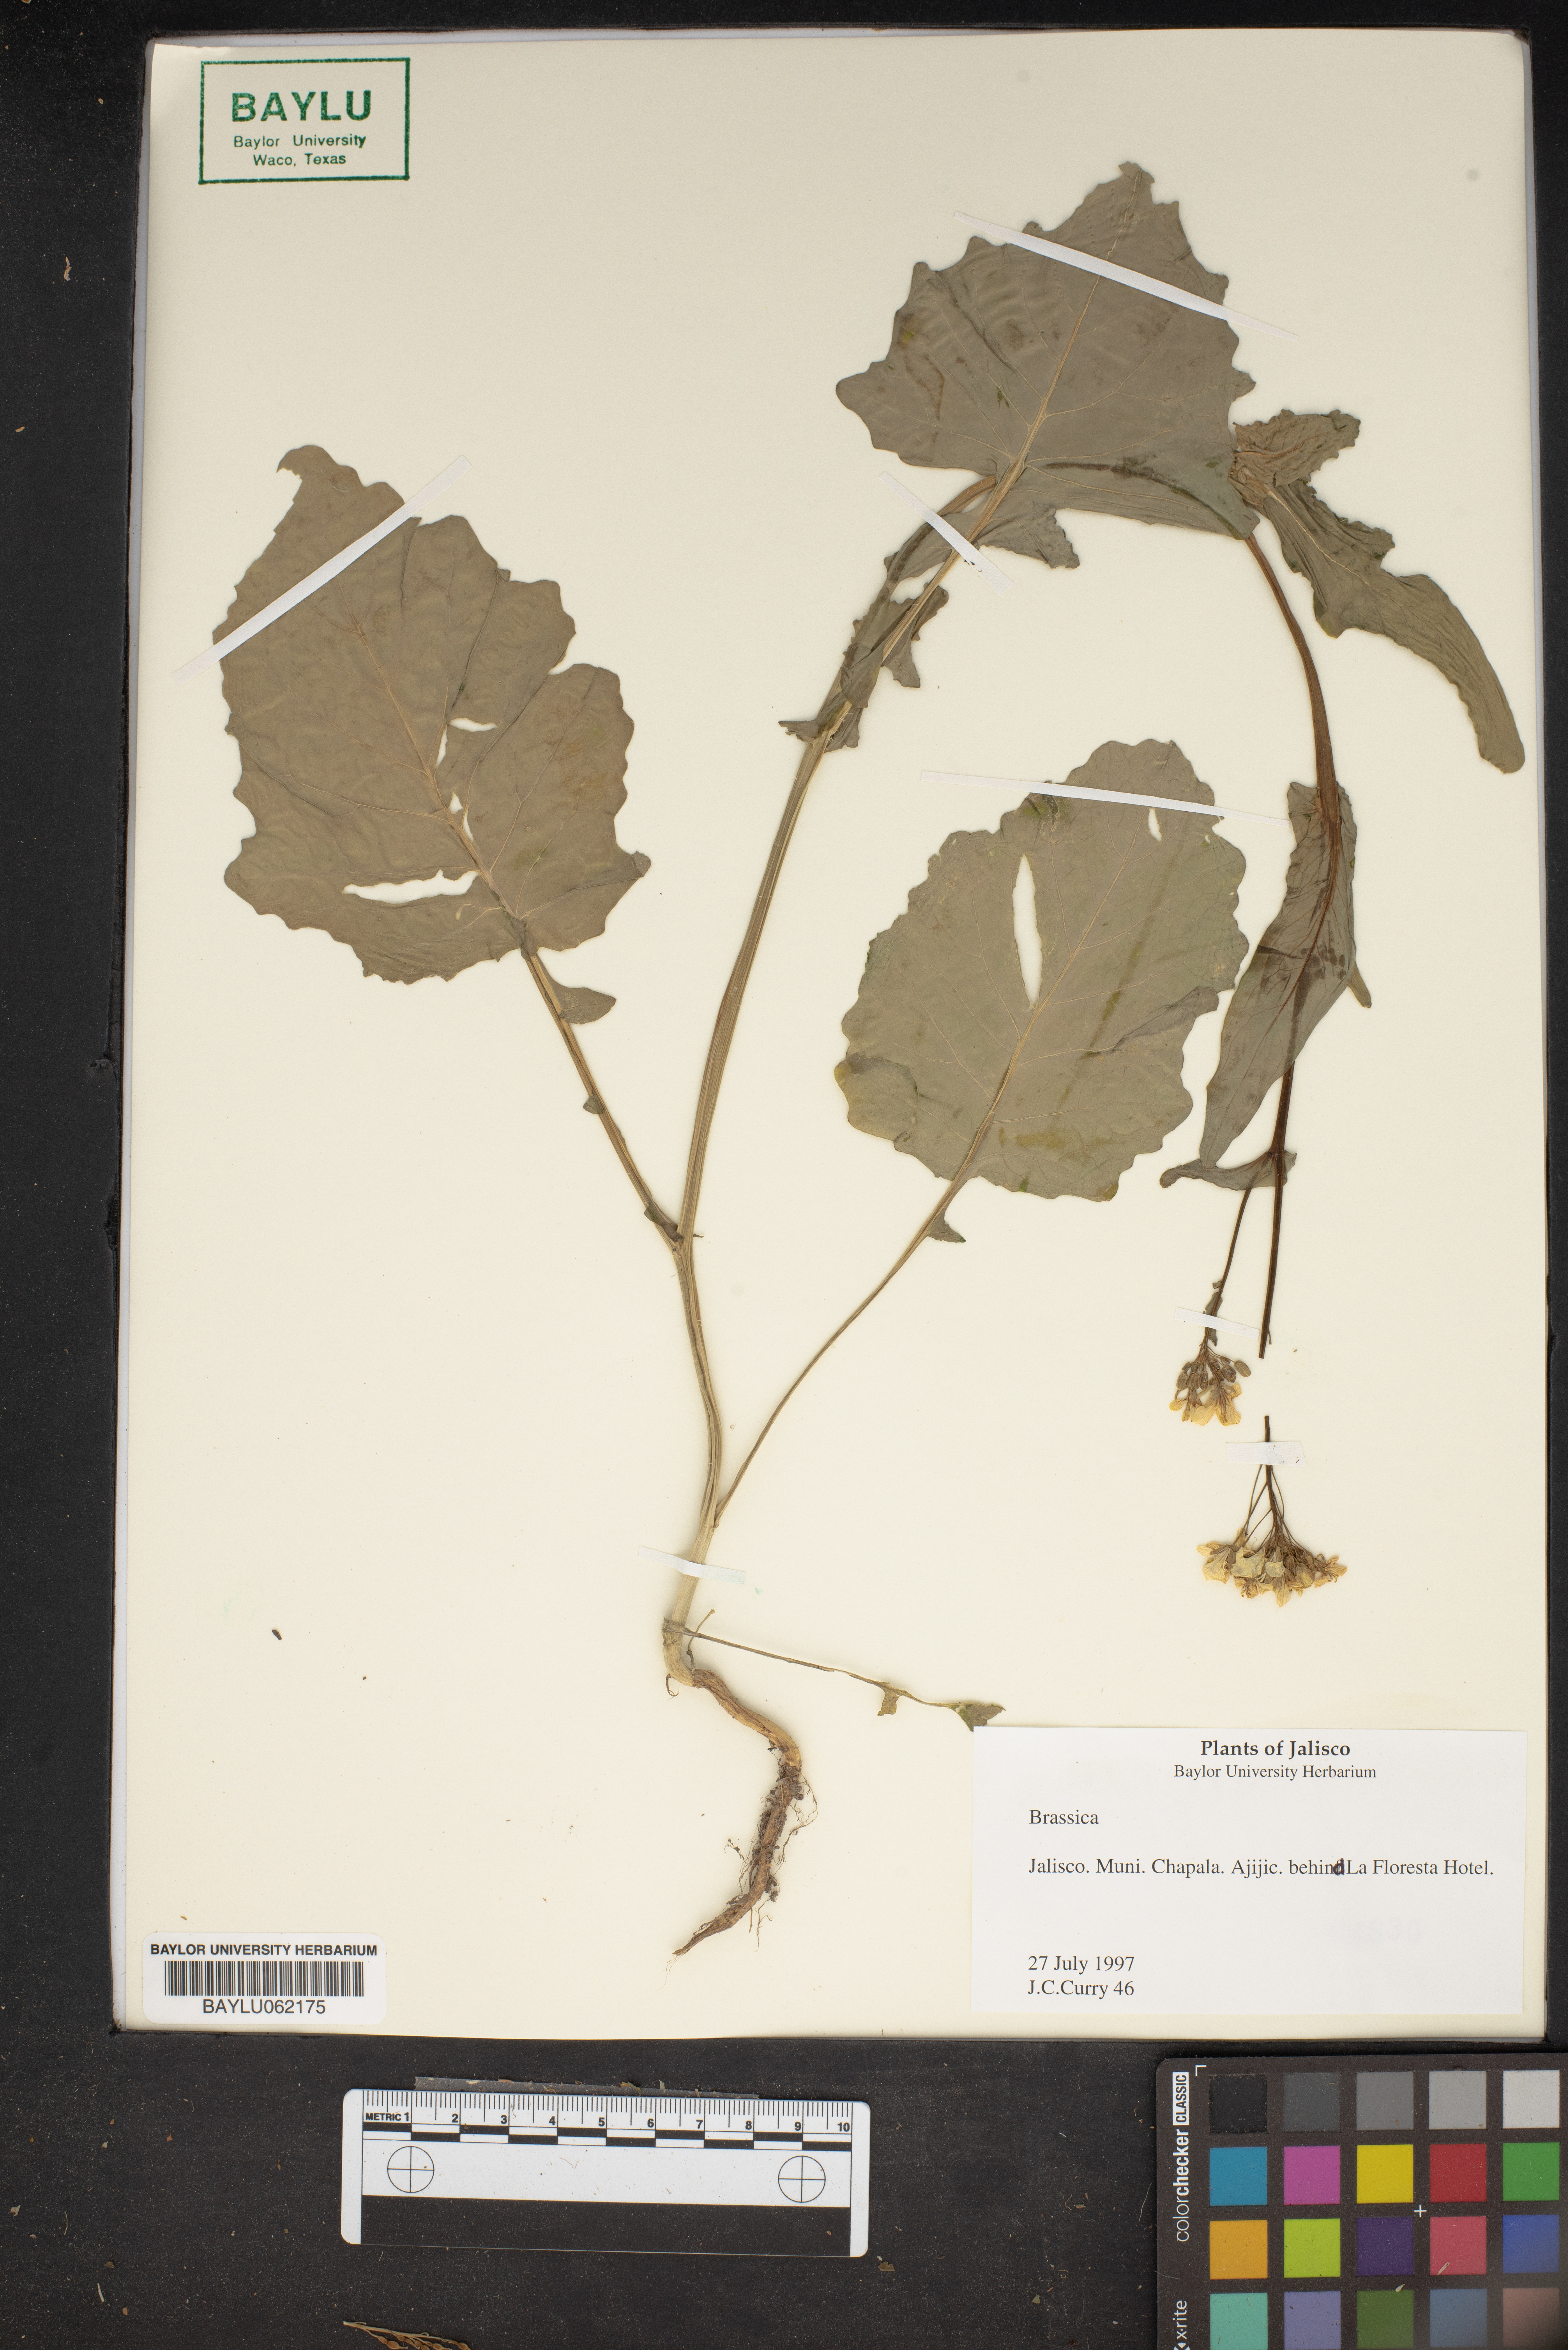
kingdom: Plantae
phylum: Tracheophyta
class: Magnoliopsida
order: Brassicales
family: Brassicaceae
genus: Brassica
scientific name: Brassica
